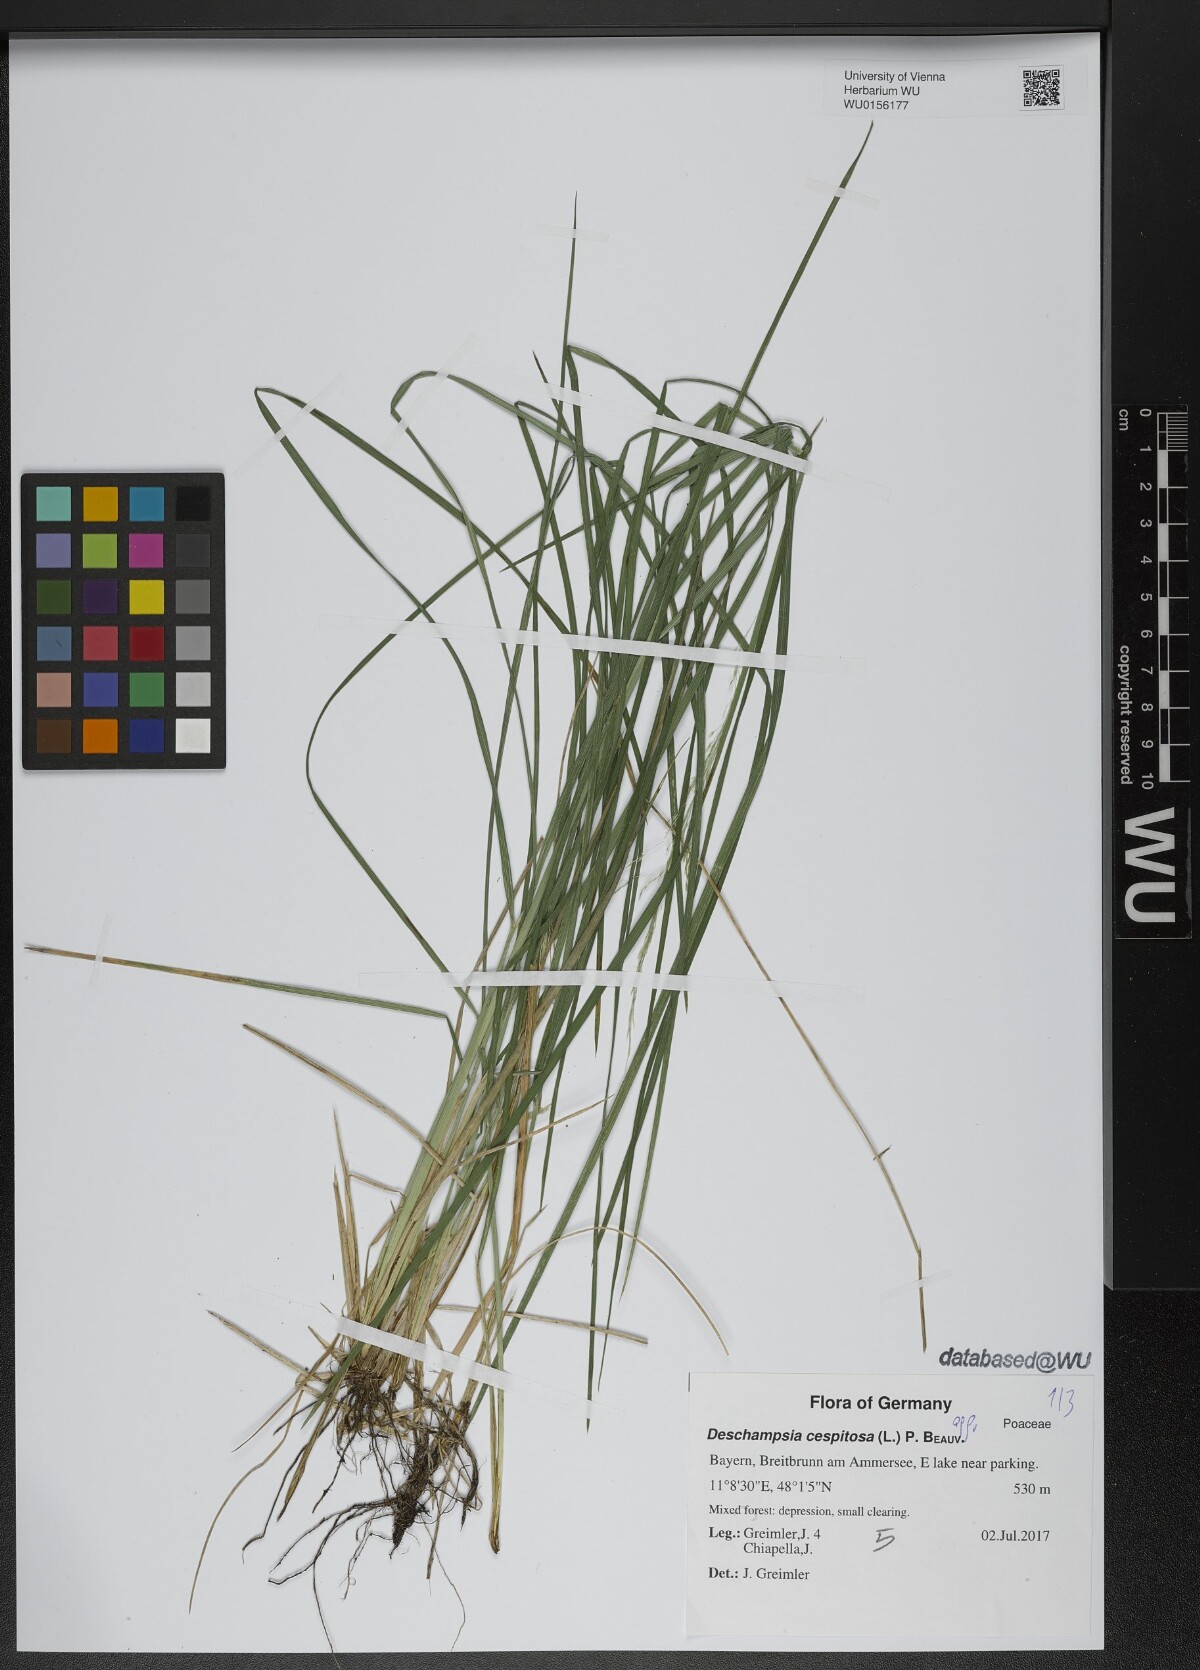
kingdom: Plantae
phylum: Tracheophyta
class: Liliopsida
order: Poales
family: Poaceae
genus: Deschampsia
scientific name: Deschampsia cespitosa
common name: Tufted hair-grass
